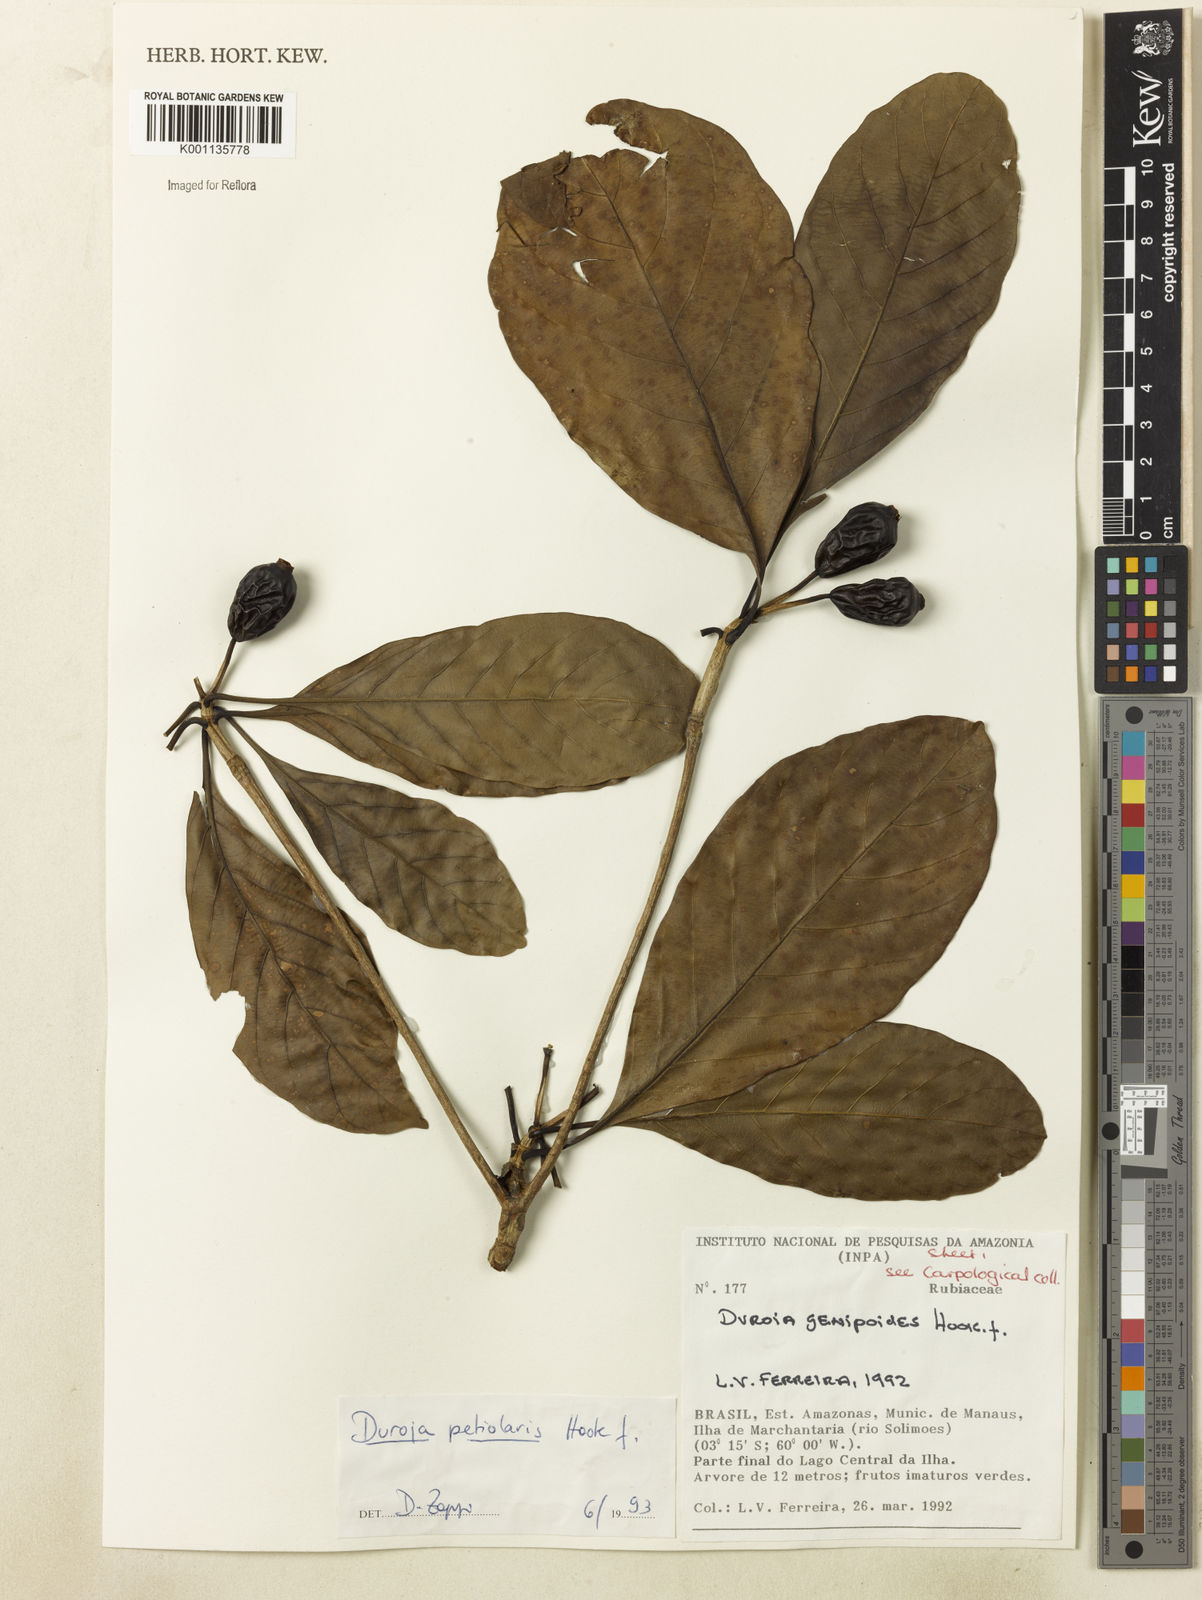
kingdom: Plantae
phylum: Tracheophyta
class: Magnoliopsida
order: Gentianales
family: Rubiaceae
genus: Duroia
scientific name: Duroia petiolaris
